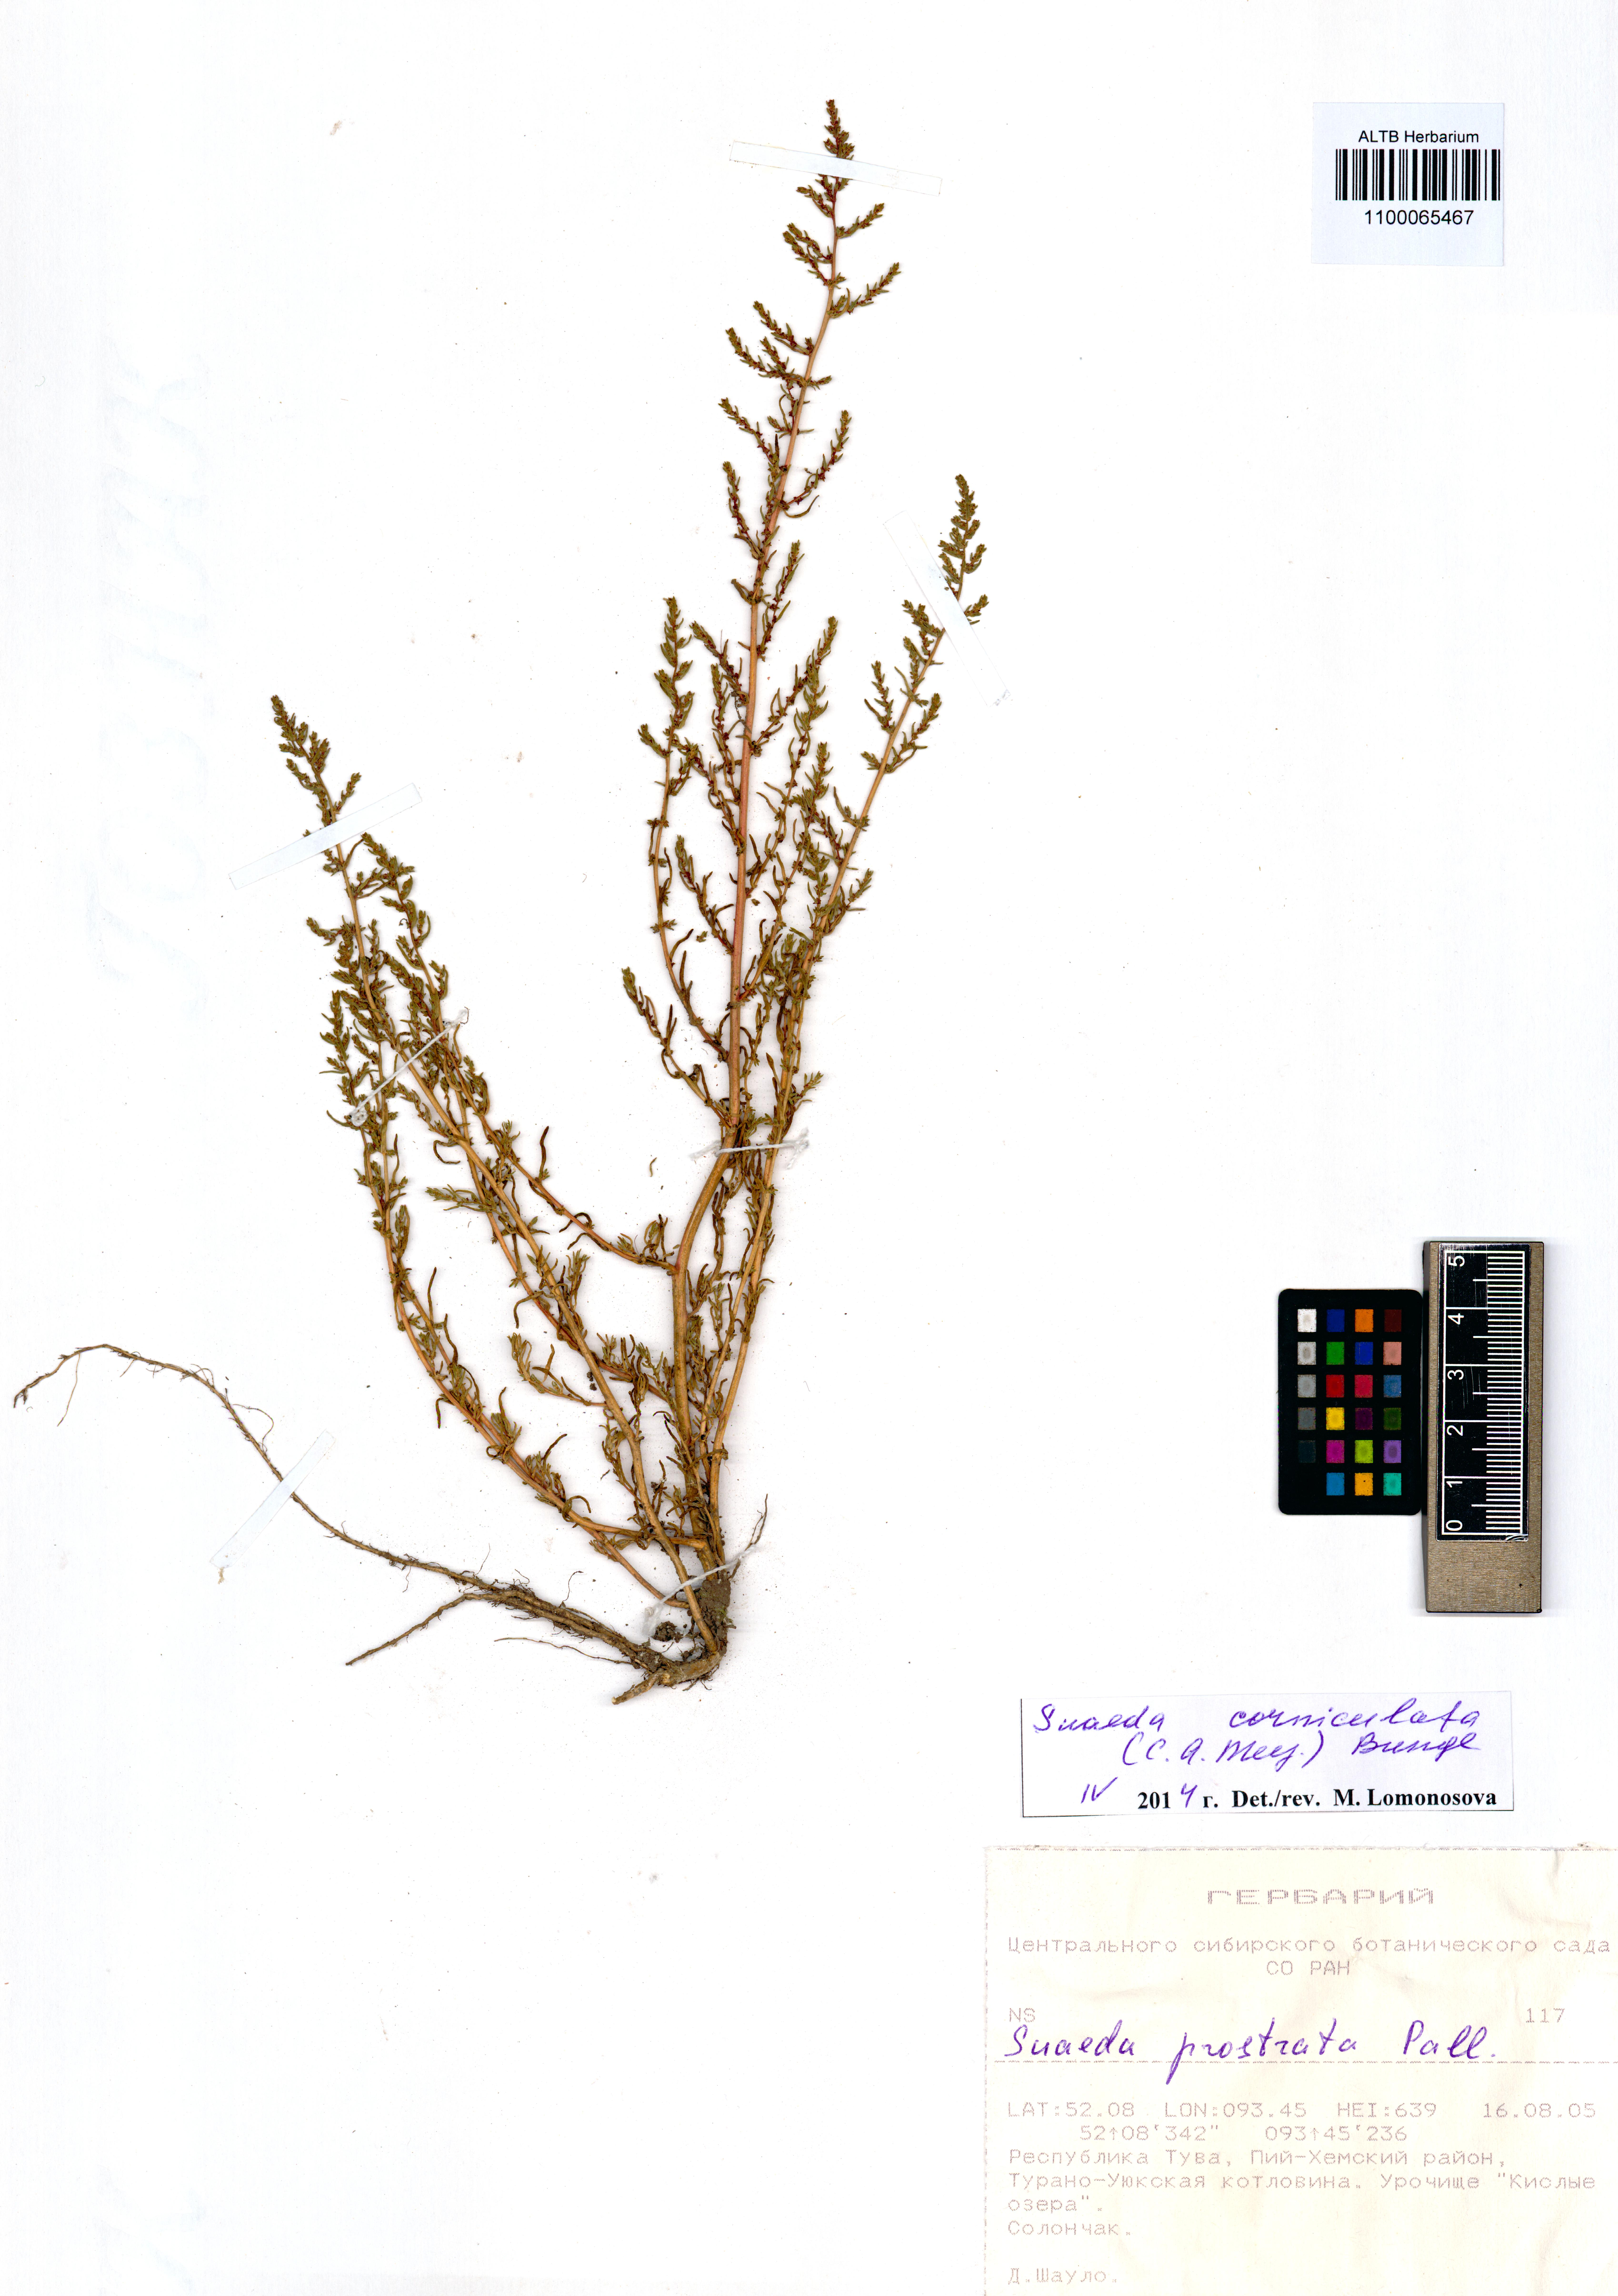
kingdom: Plantae
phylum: Tracheophyta
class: Magnoliopsida
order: Caryophyllales
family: Amaranthaceae
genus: Suaeda
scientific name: Suaeda corniculata
